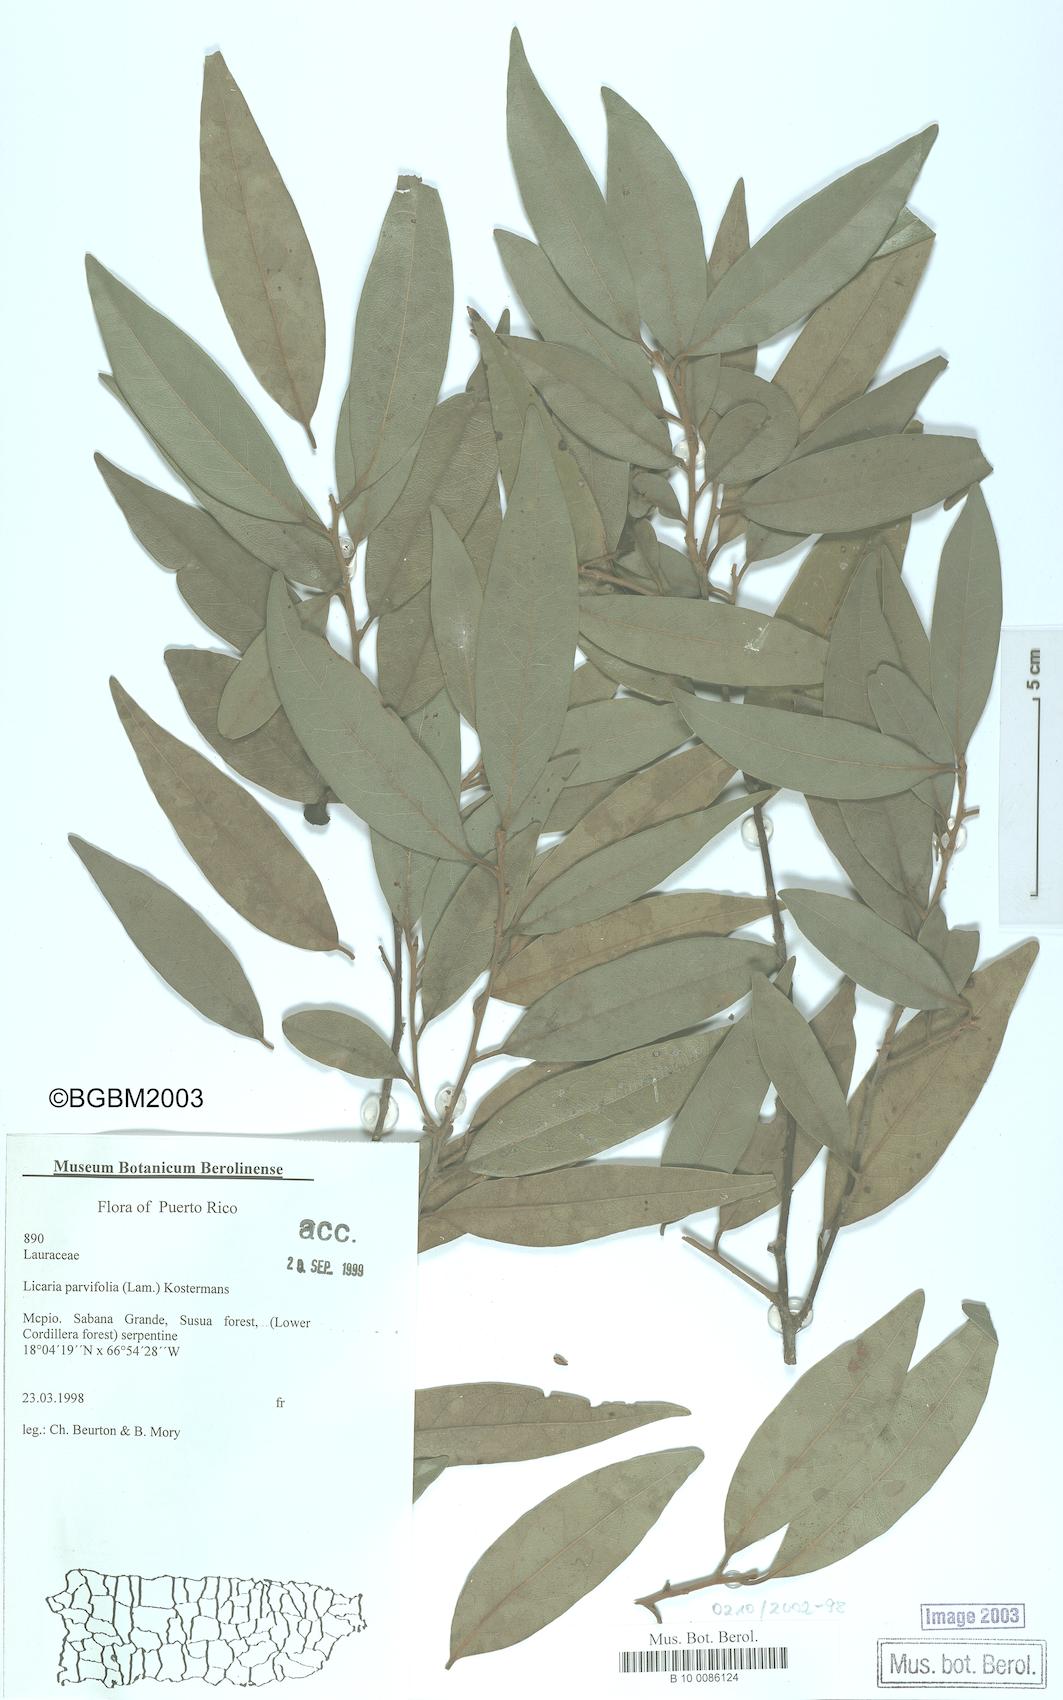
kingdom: Plantae
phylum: Tracheophyta
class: Magnoliopsida
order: Laurales
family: Lauraceae
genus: Licaria
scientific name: Licaria parvifolia
